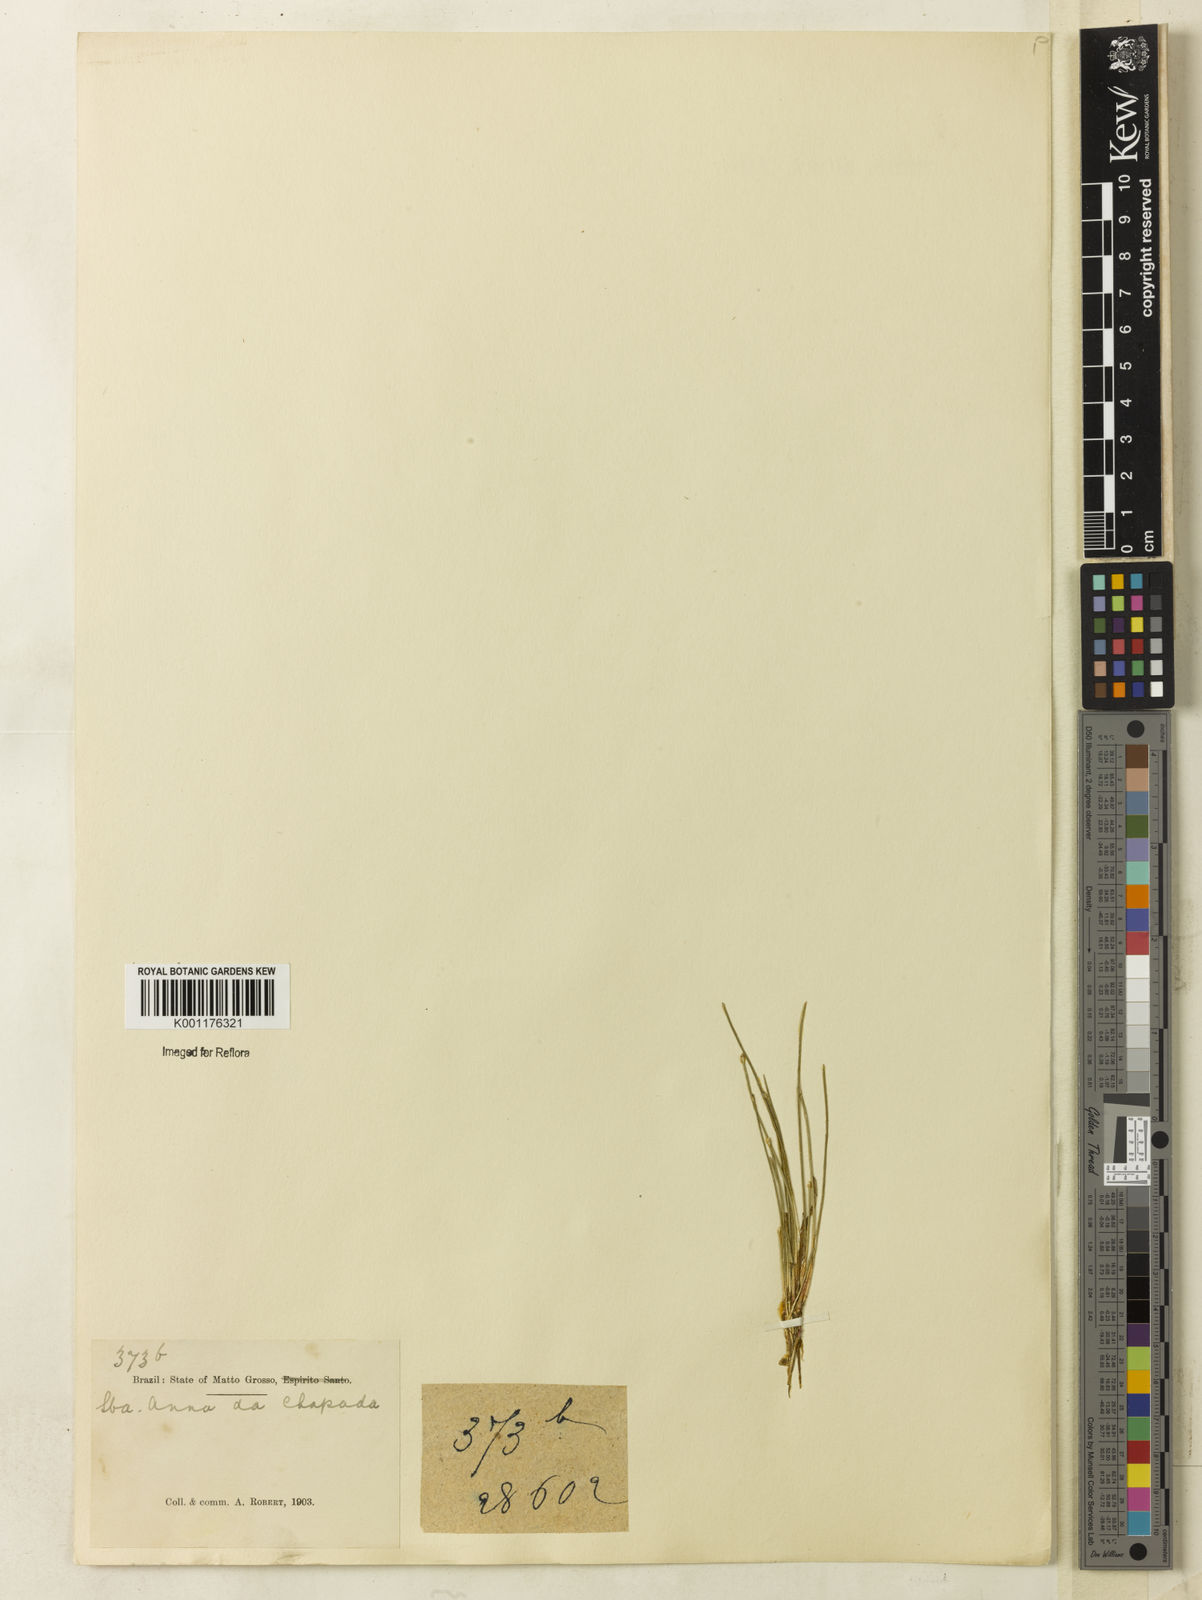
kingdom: Plantae
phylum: Tracheophyta
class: Liliopsida
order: Poales
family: Cyperaceae
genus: Eleocharis
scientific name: Eleocharis
